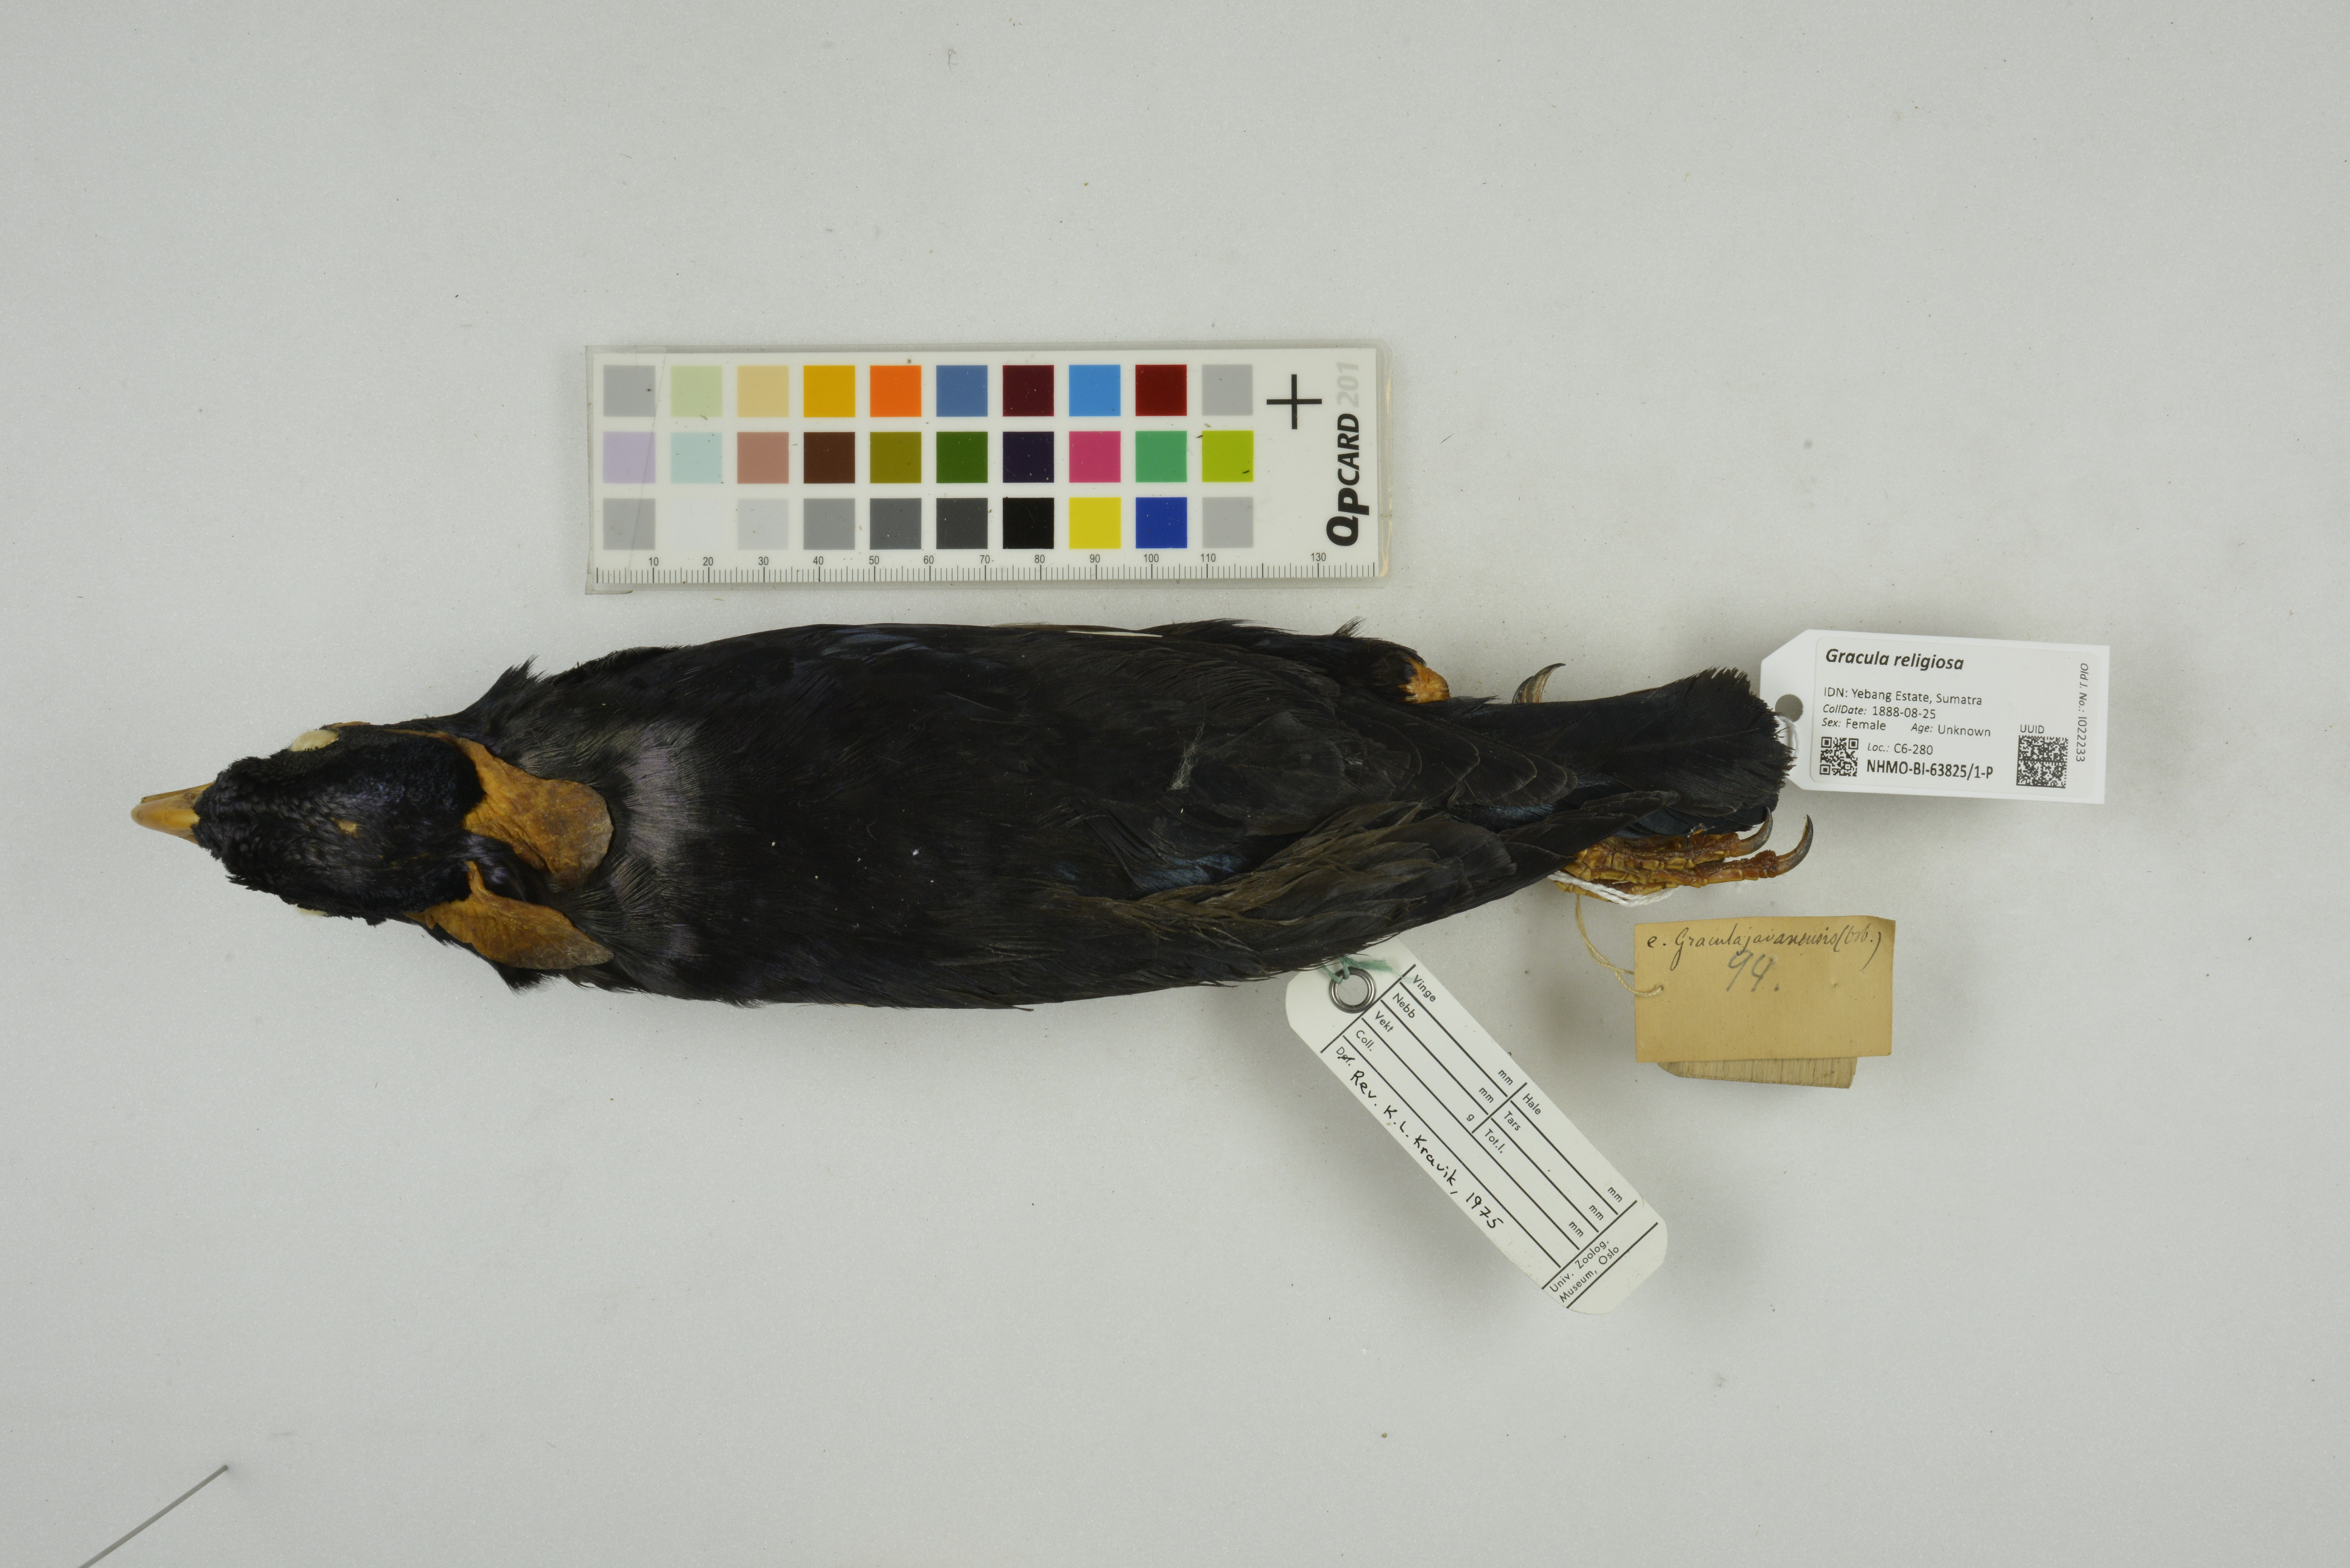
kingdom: Animalia
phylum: Chordata
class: Aves
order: Passeriformes
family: Sturnidae
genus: Gracula
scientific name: Gracula religiosa
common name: Common hill myna
